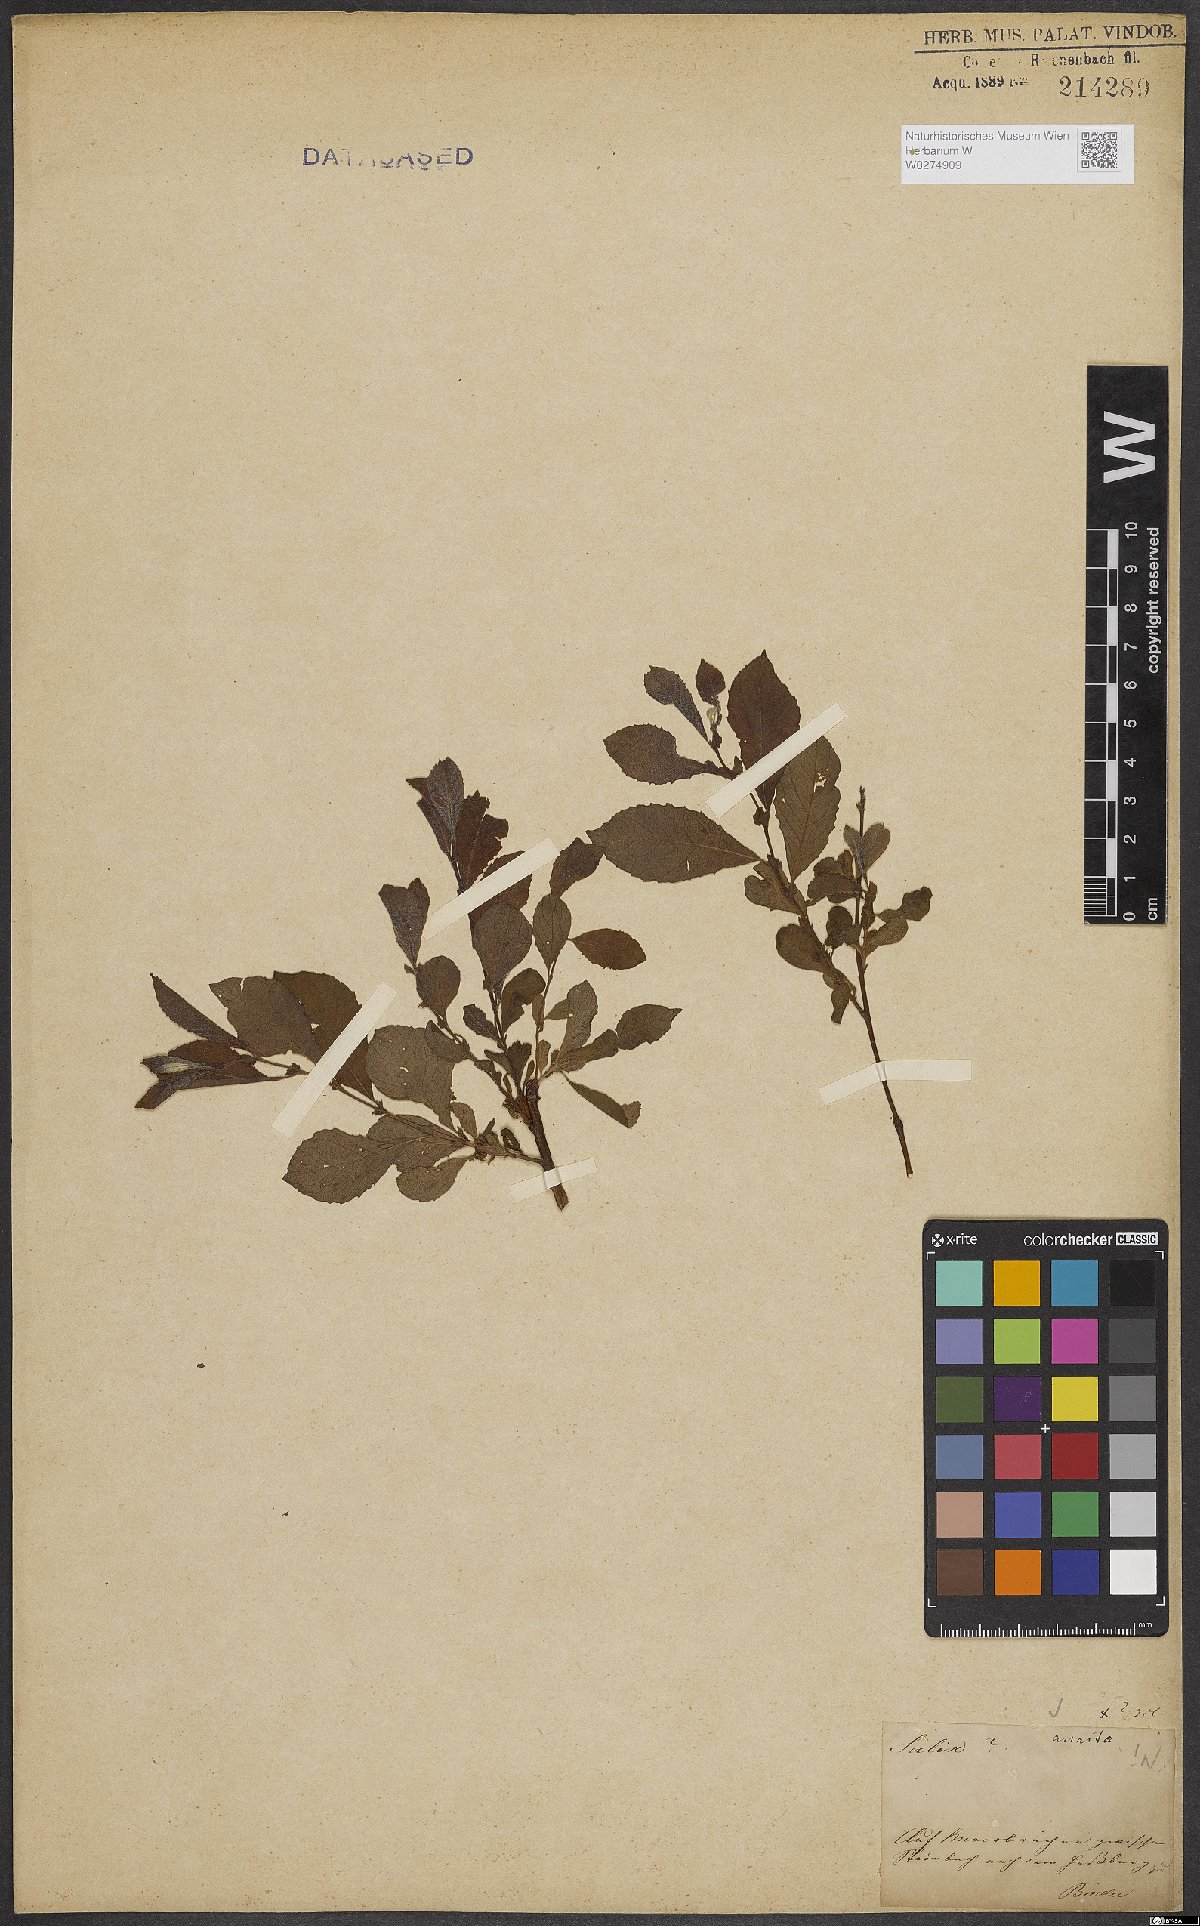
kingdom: Plantae
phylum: Tracheophyta
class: Magnoliopsida
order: Malpighiales
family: Salicaceae
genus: Salix
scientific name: Salix aurita
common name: Eared willow
